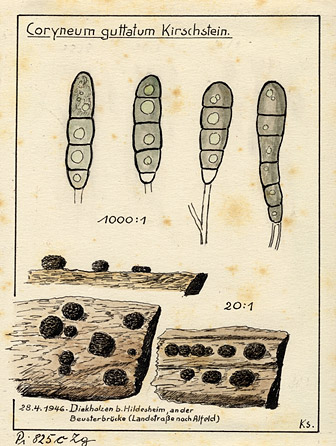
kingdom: Fungi
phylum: Ascomycota
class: Leotiomycetes
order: Helotiales
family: Ploettnerulaceae
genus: Cylindrosporium
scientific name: Cylindrosporium
